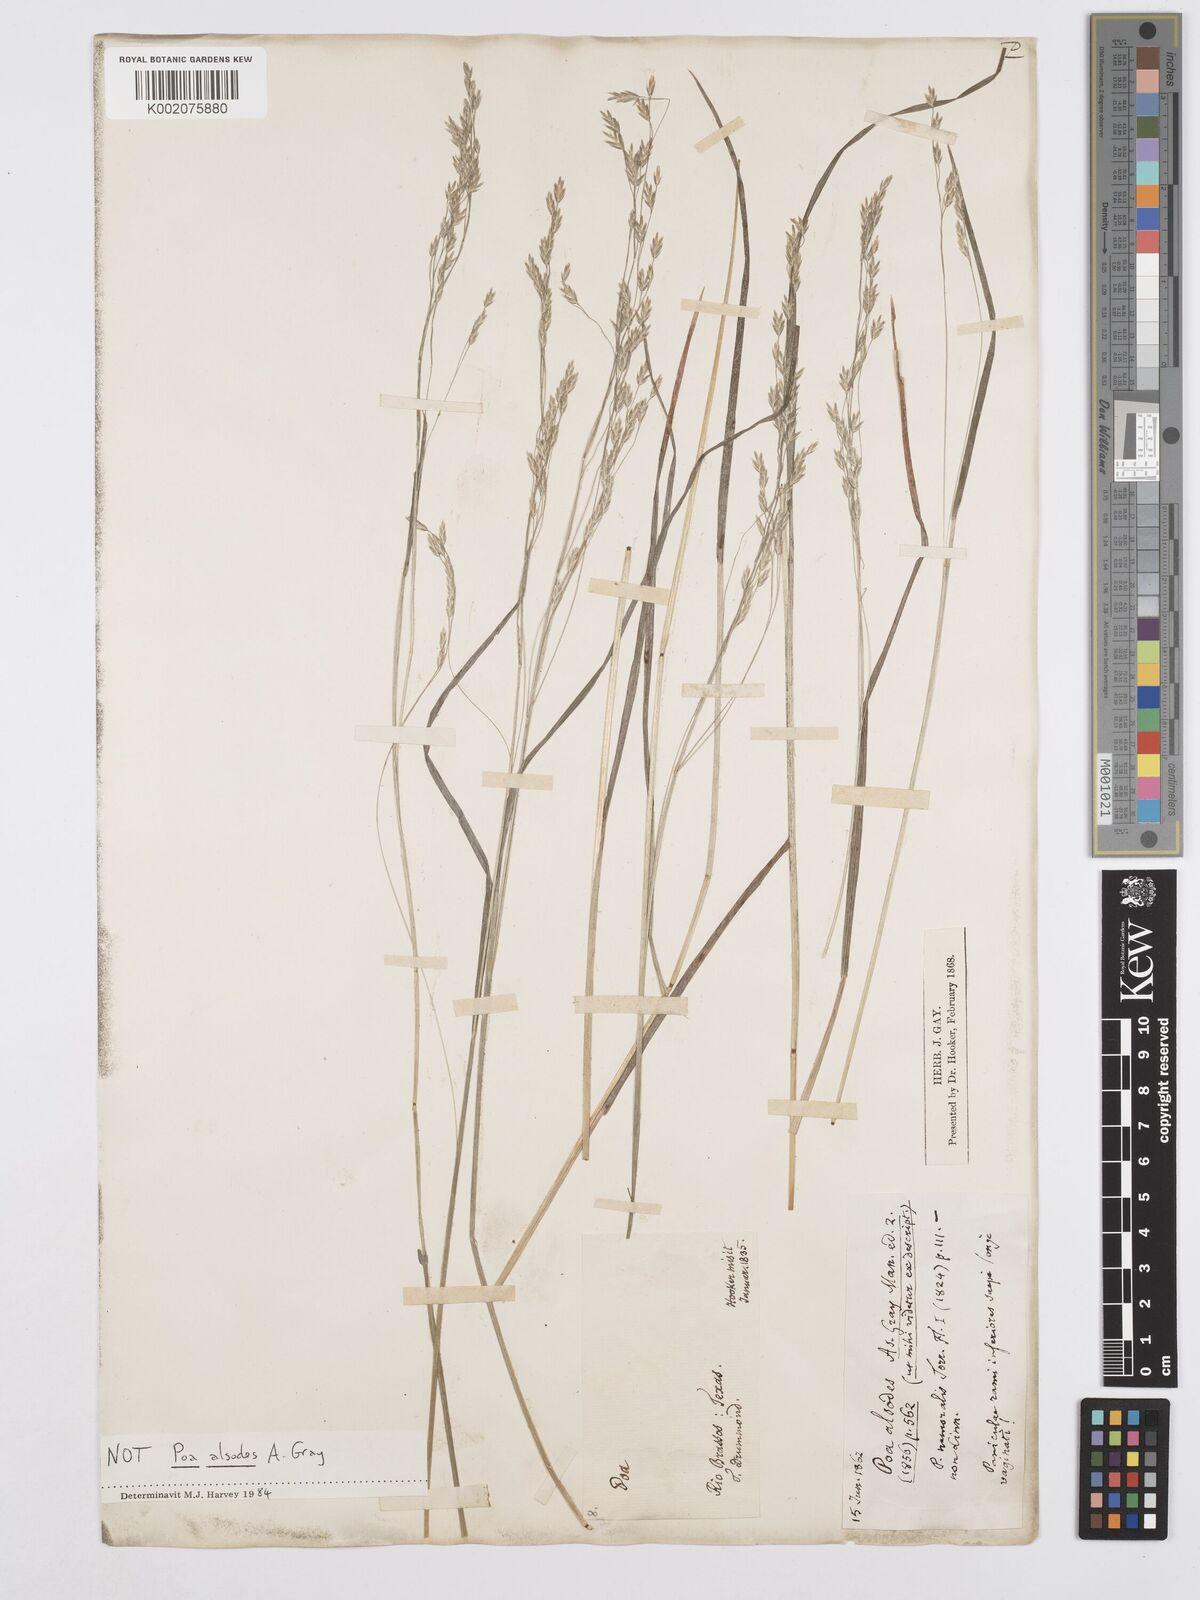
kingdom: Plantae
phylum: Tracheophyta
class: Liliopsida
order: Poales
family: Poaceae
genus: Poa
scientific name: Poa alsodes
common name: Grove bluegrass
